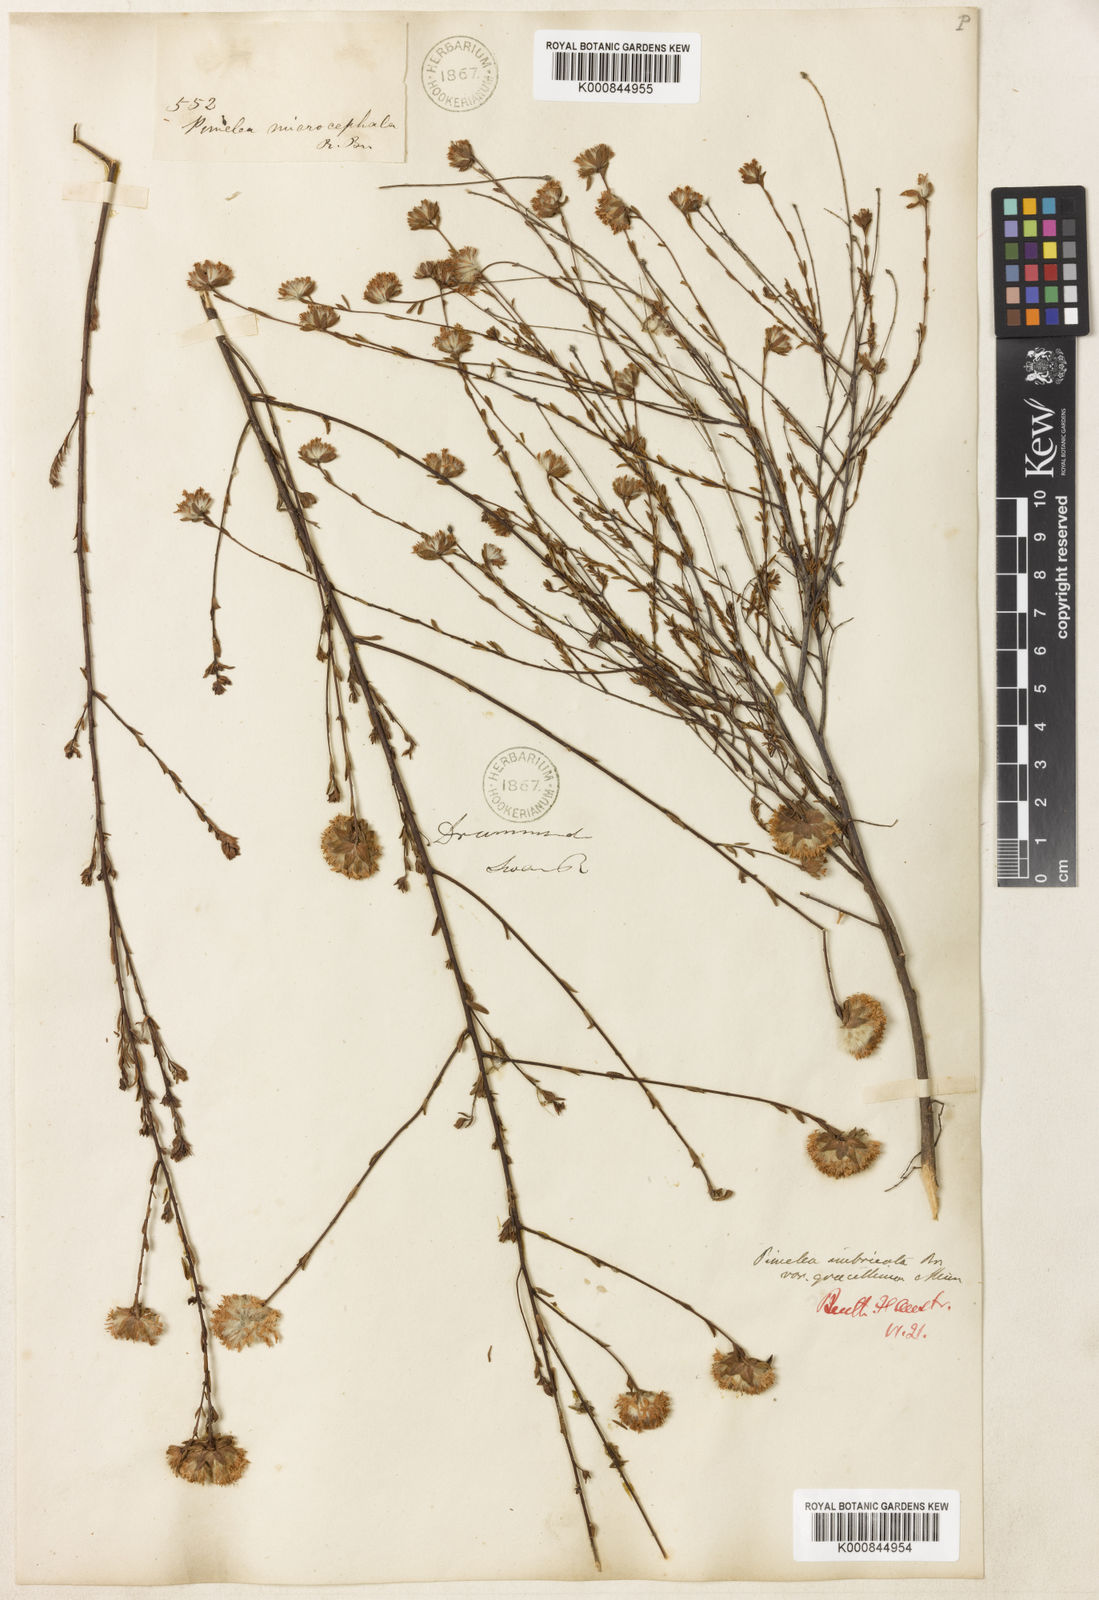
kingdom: Plantae
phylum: Tracheophyta
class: Magnoliopsida
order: Malvales
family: Thymelaeaceae
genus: Pimelea
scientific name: Pimelea imbricata
